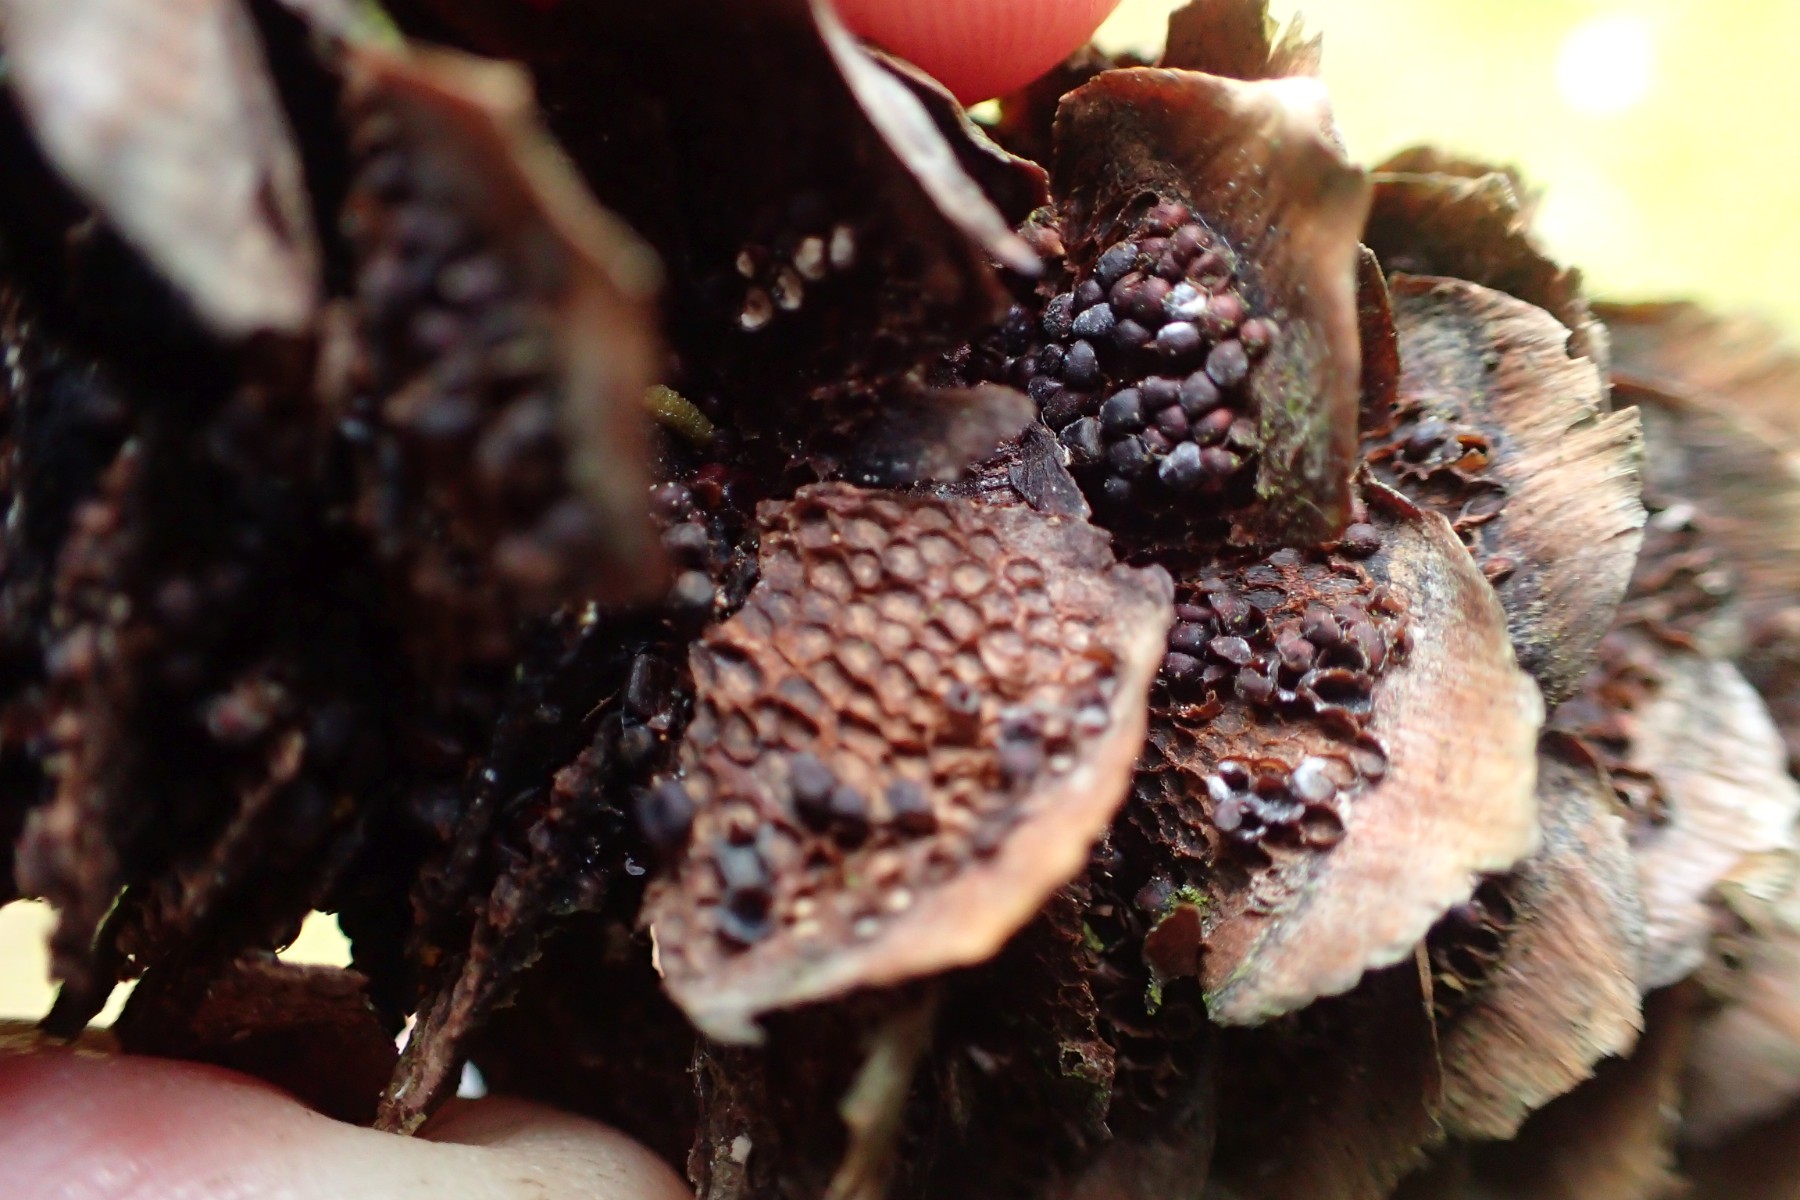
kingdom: Fungi
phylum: Basidiomycota
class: Pucciniomycetes
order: Pucciniales
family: Pucciniastraceae
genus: Thekopsora
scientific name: Thekopsora areolata
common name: grankogle-nålerust
